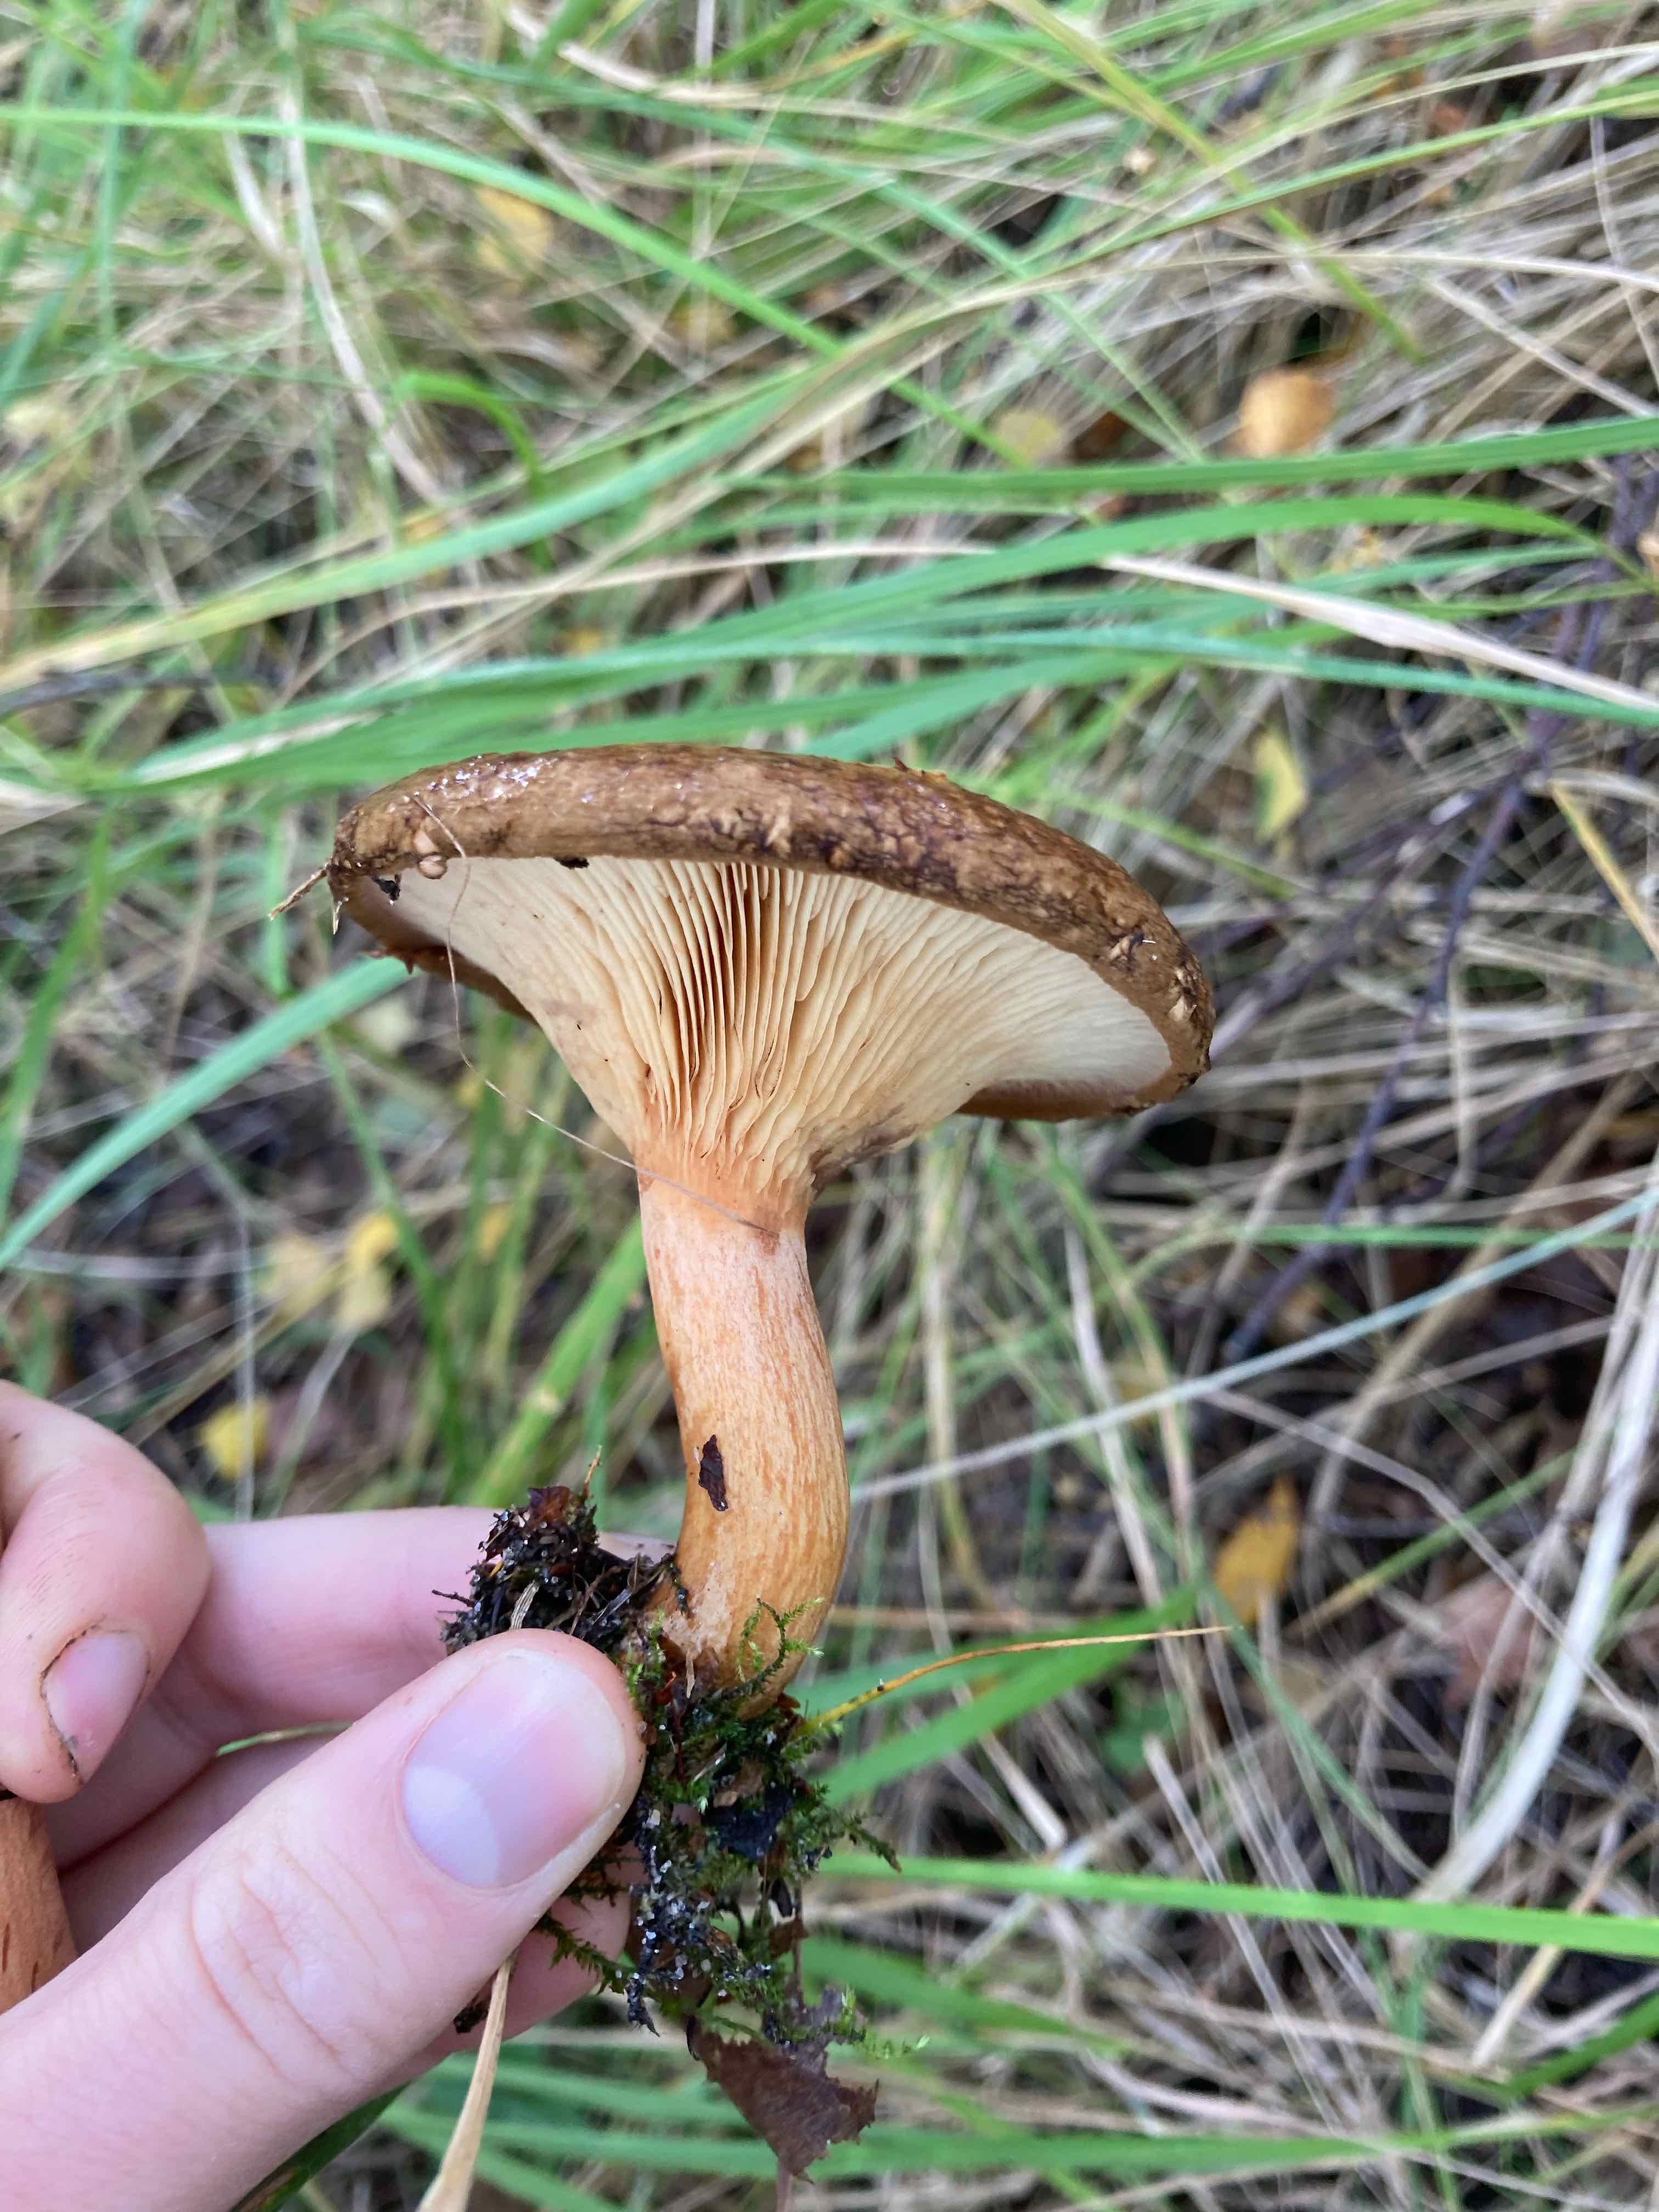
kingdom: Fungi
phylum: Basidiomycota
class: Agaricomycetes
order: Boletales
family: Paxillaceae
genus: Paxillus
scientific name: Paxillus involutus
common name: almindelig netbladhat
